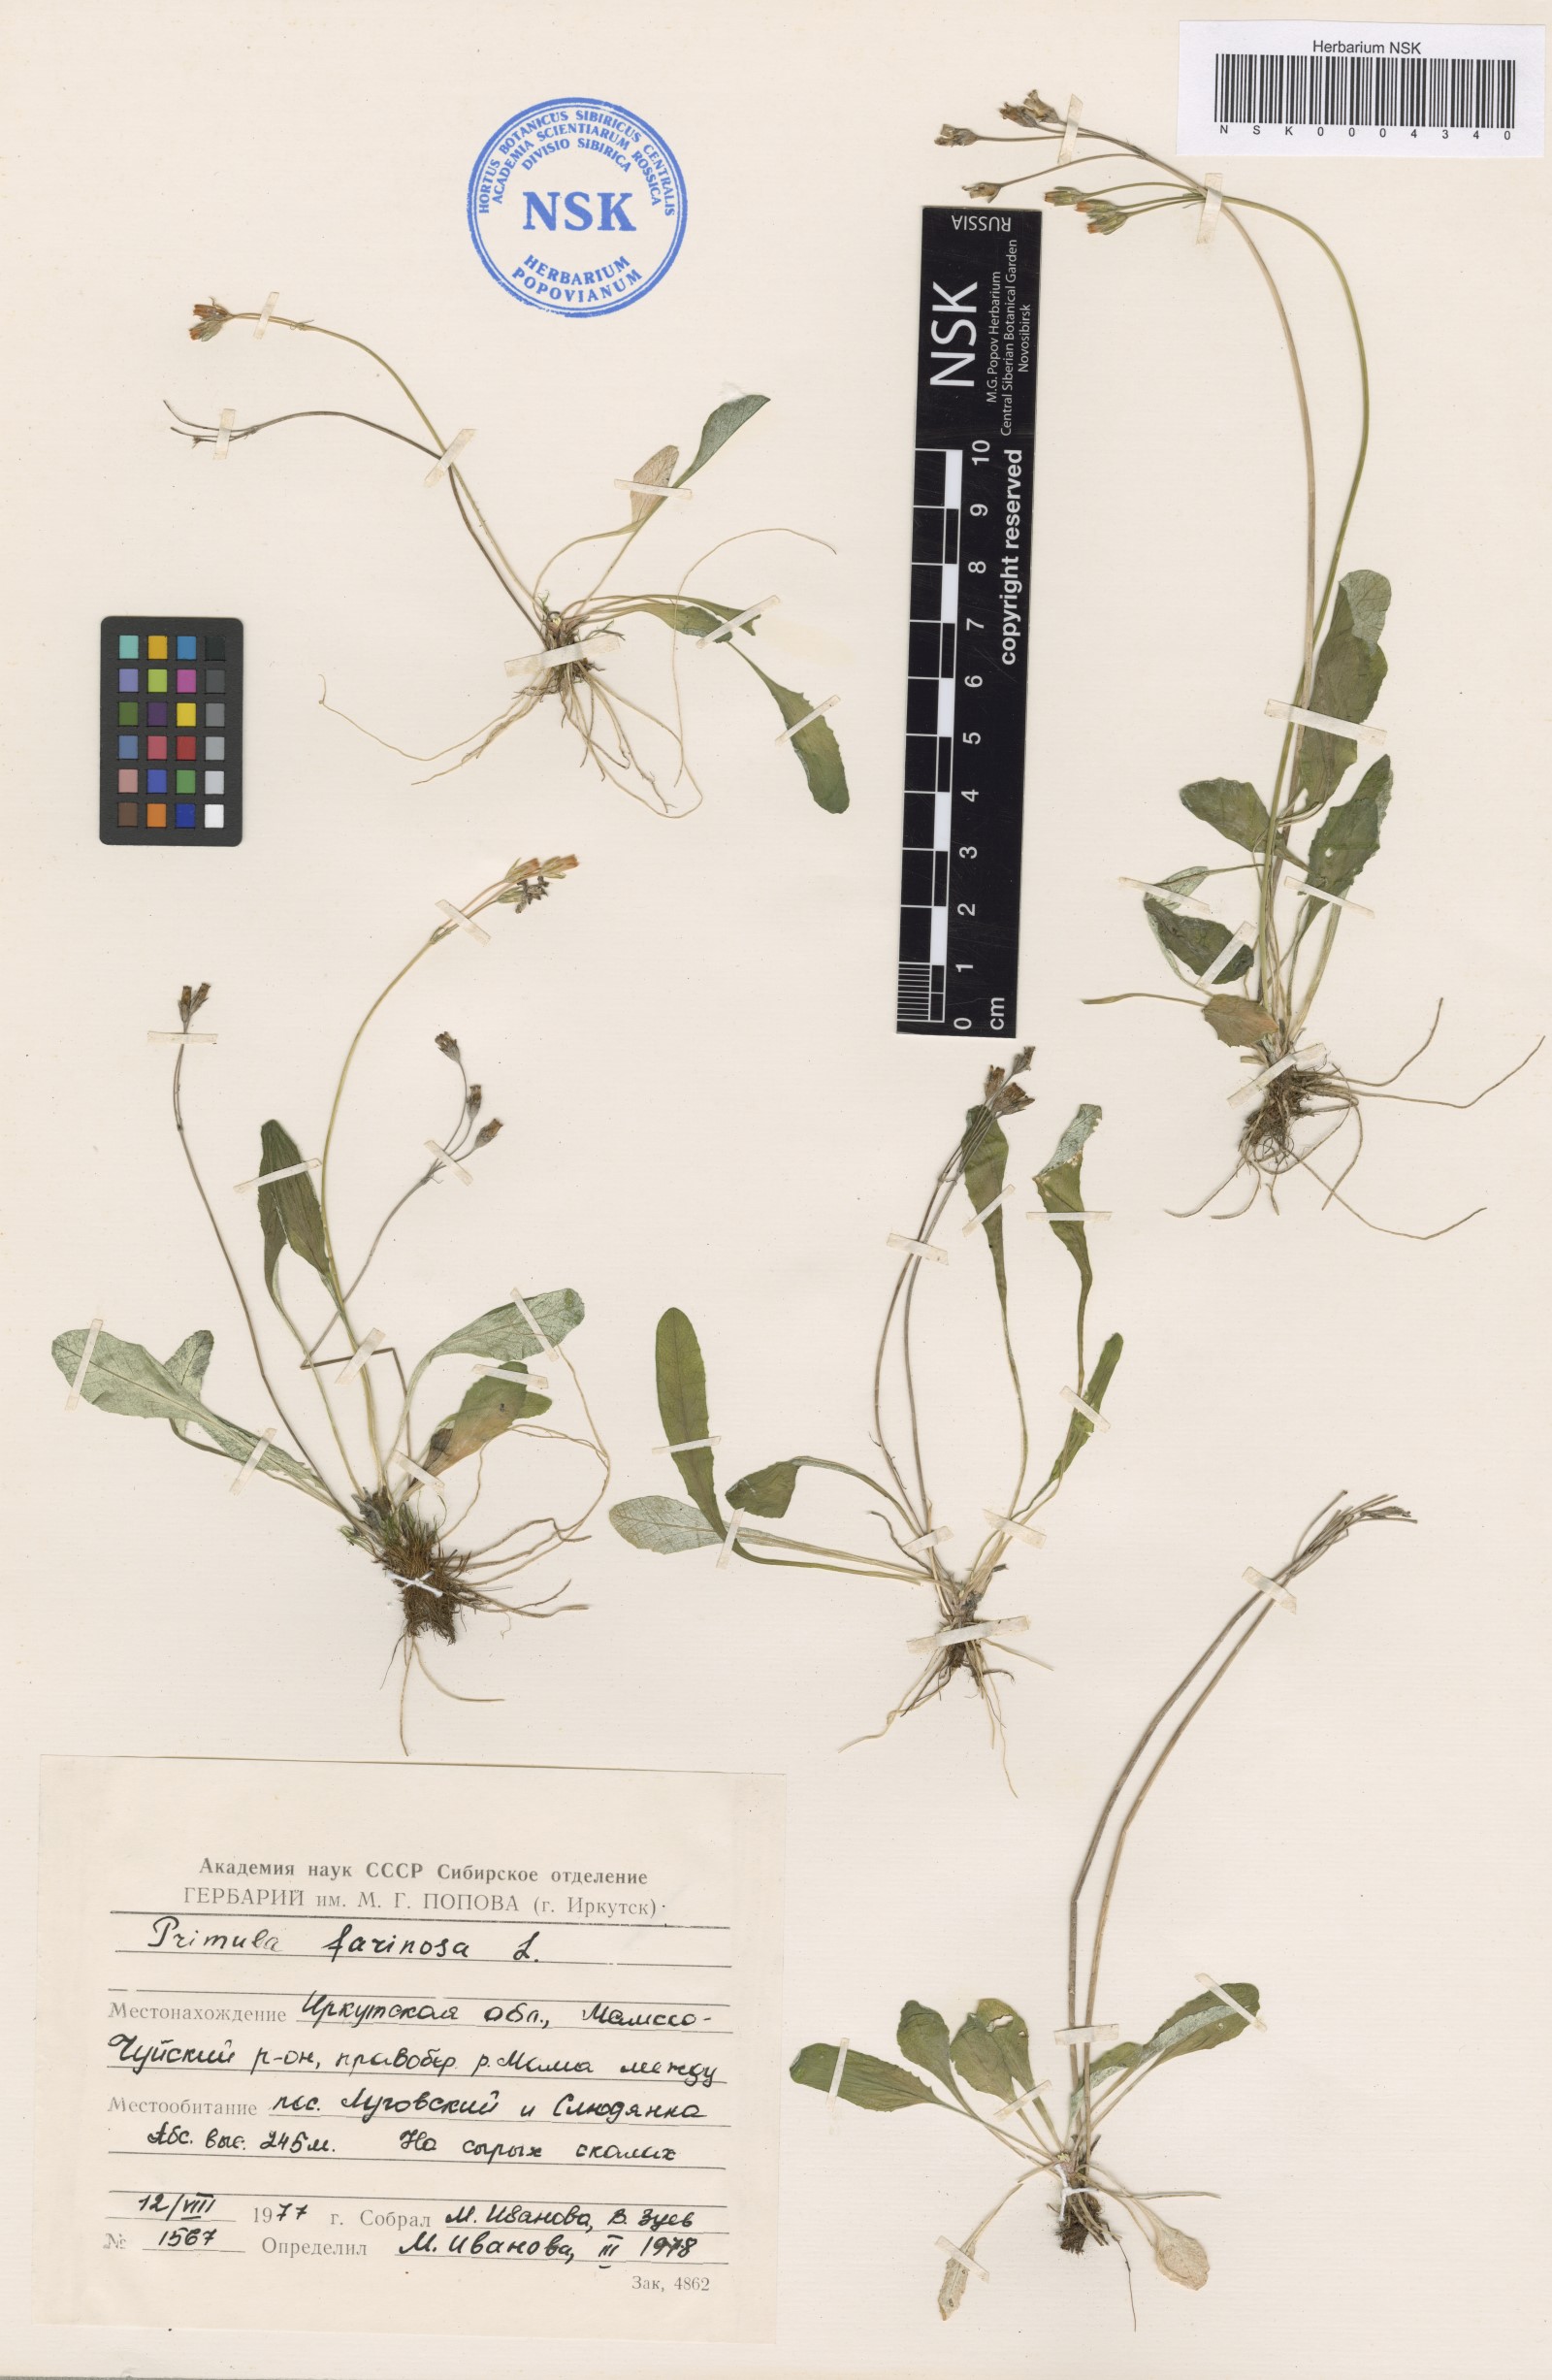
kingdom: Plantae
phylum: Tracheophyta
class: Magnoliopsida
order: Ericales
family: Primulaceae
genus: Primula
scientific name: Primula farinosa
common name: Bird's-eye primrose
